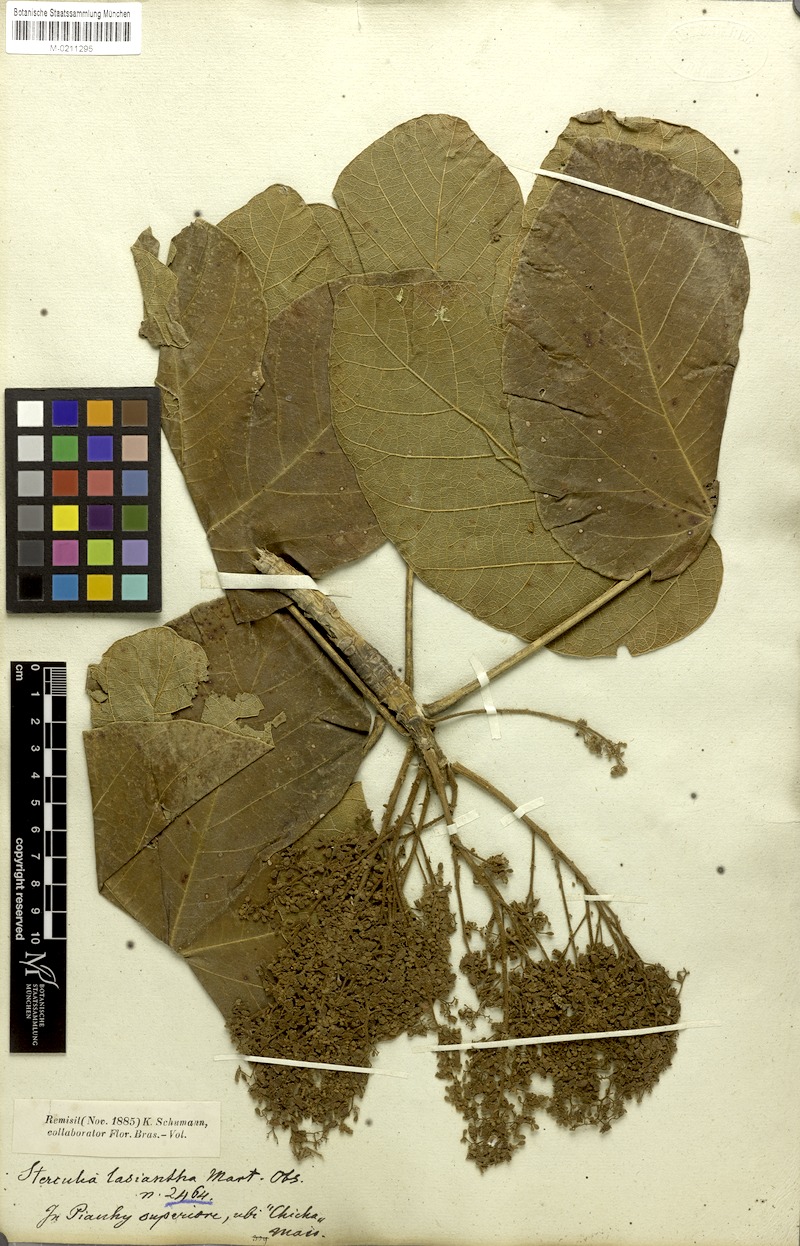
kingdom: Plantae
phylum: Tracheophyta
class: Magnoliopsida
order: Malvales
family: Malvaceae
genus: Sterculia
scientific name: Sterculia striata
